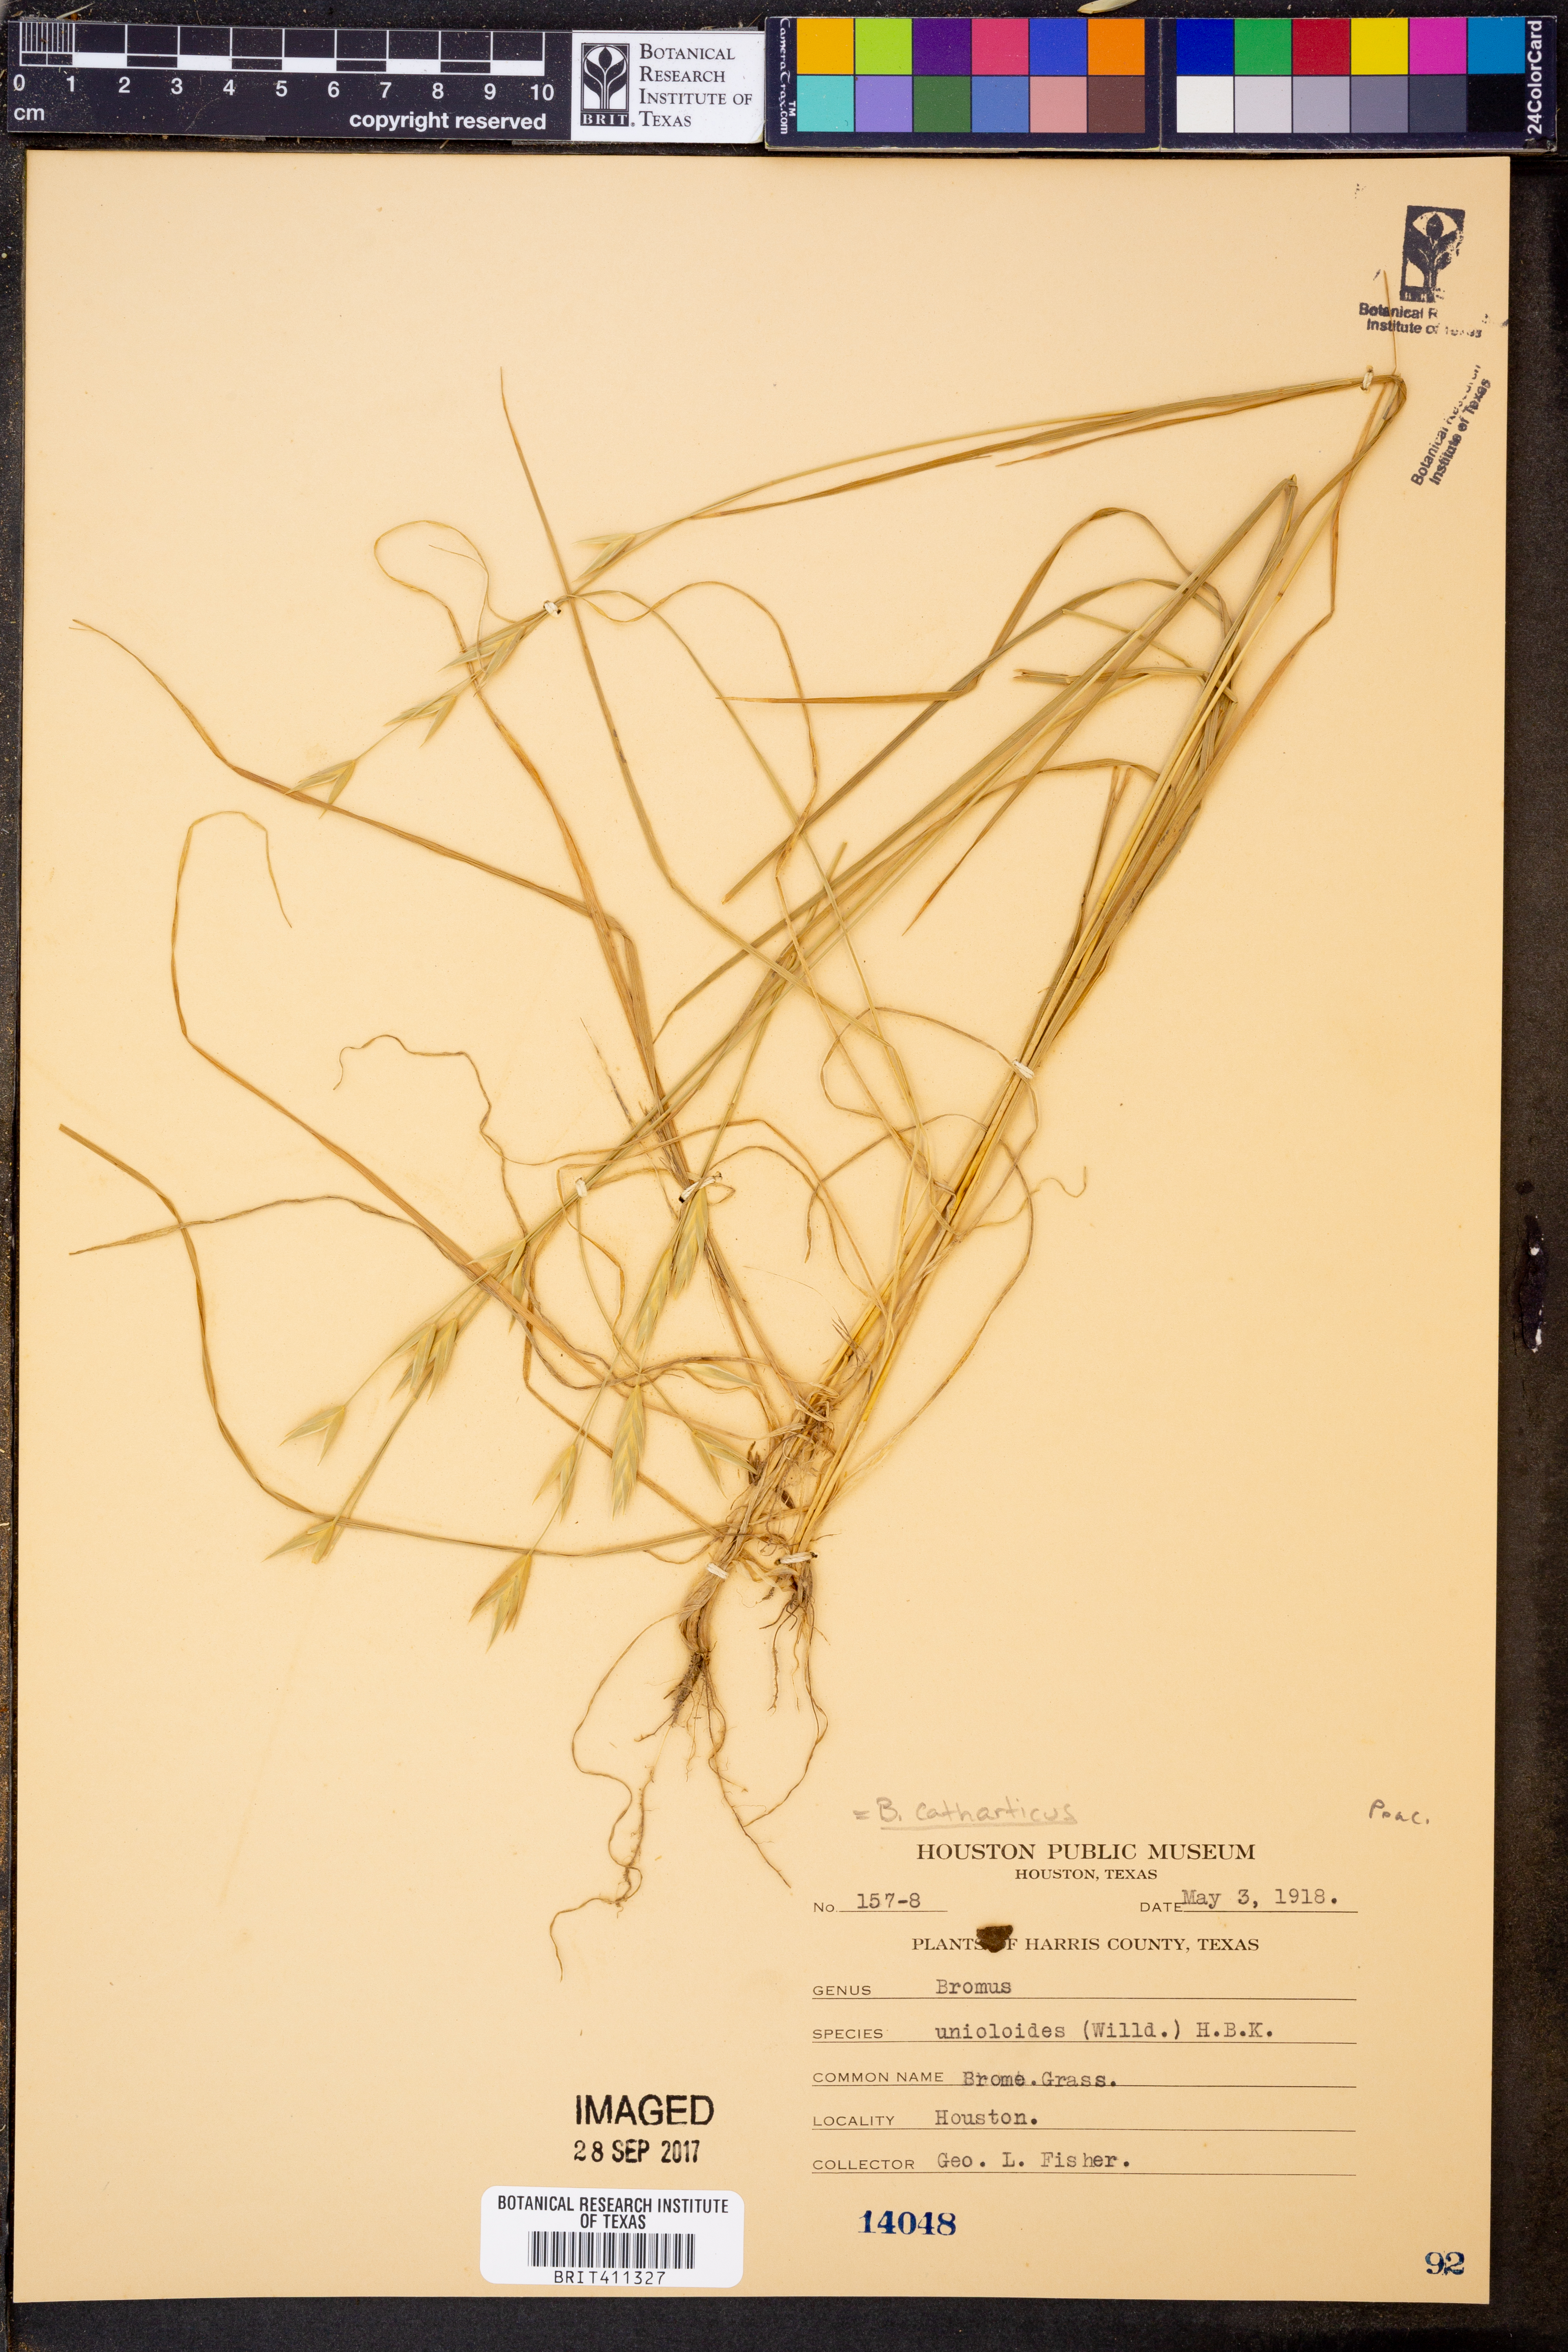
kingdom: Plantae
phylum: Tracheophyta
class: Liliopsida
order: Poales
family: Poaceae
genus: Bromus
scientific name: Bromus catharticus
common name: Rescuegrass
